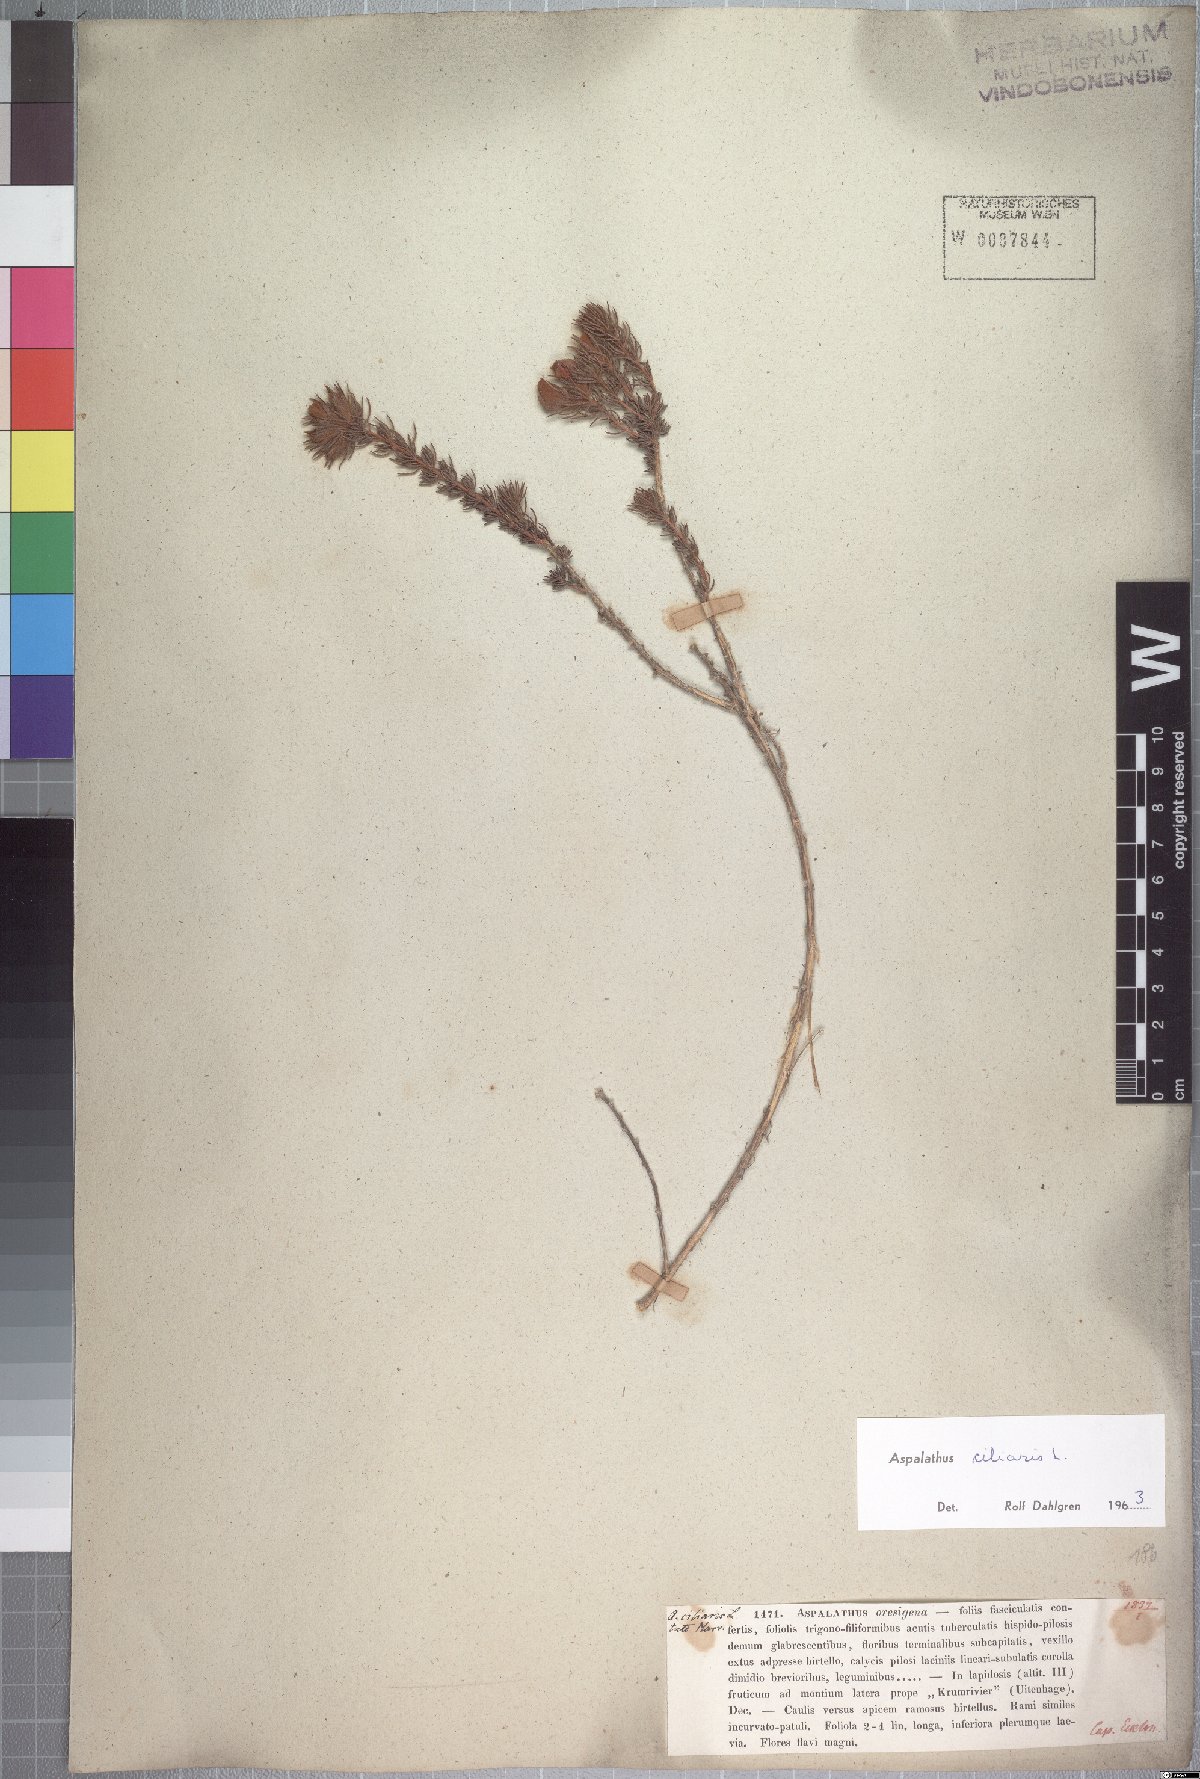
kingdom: Plantae
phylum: Tracheophyta
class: Magnoliopsida
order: Fabales
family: Fabaceae
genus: Aspalathus
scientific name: Aspalathus ciliaris
